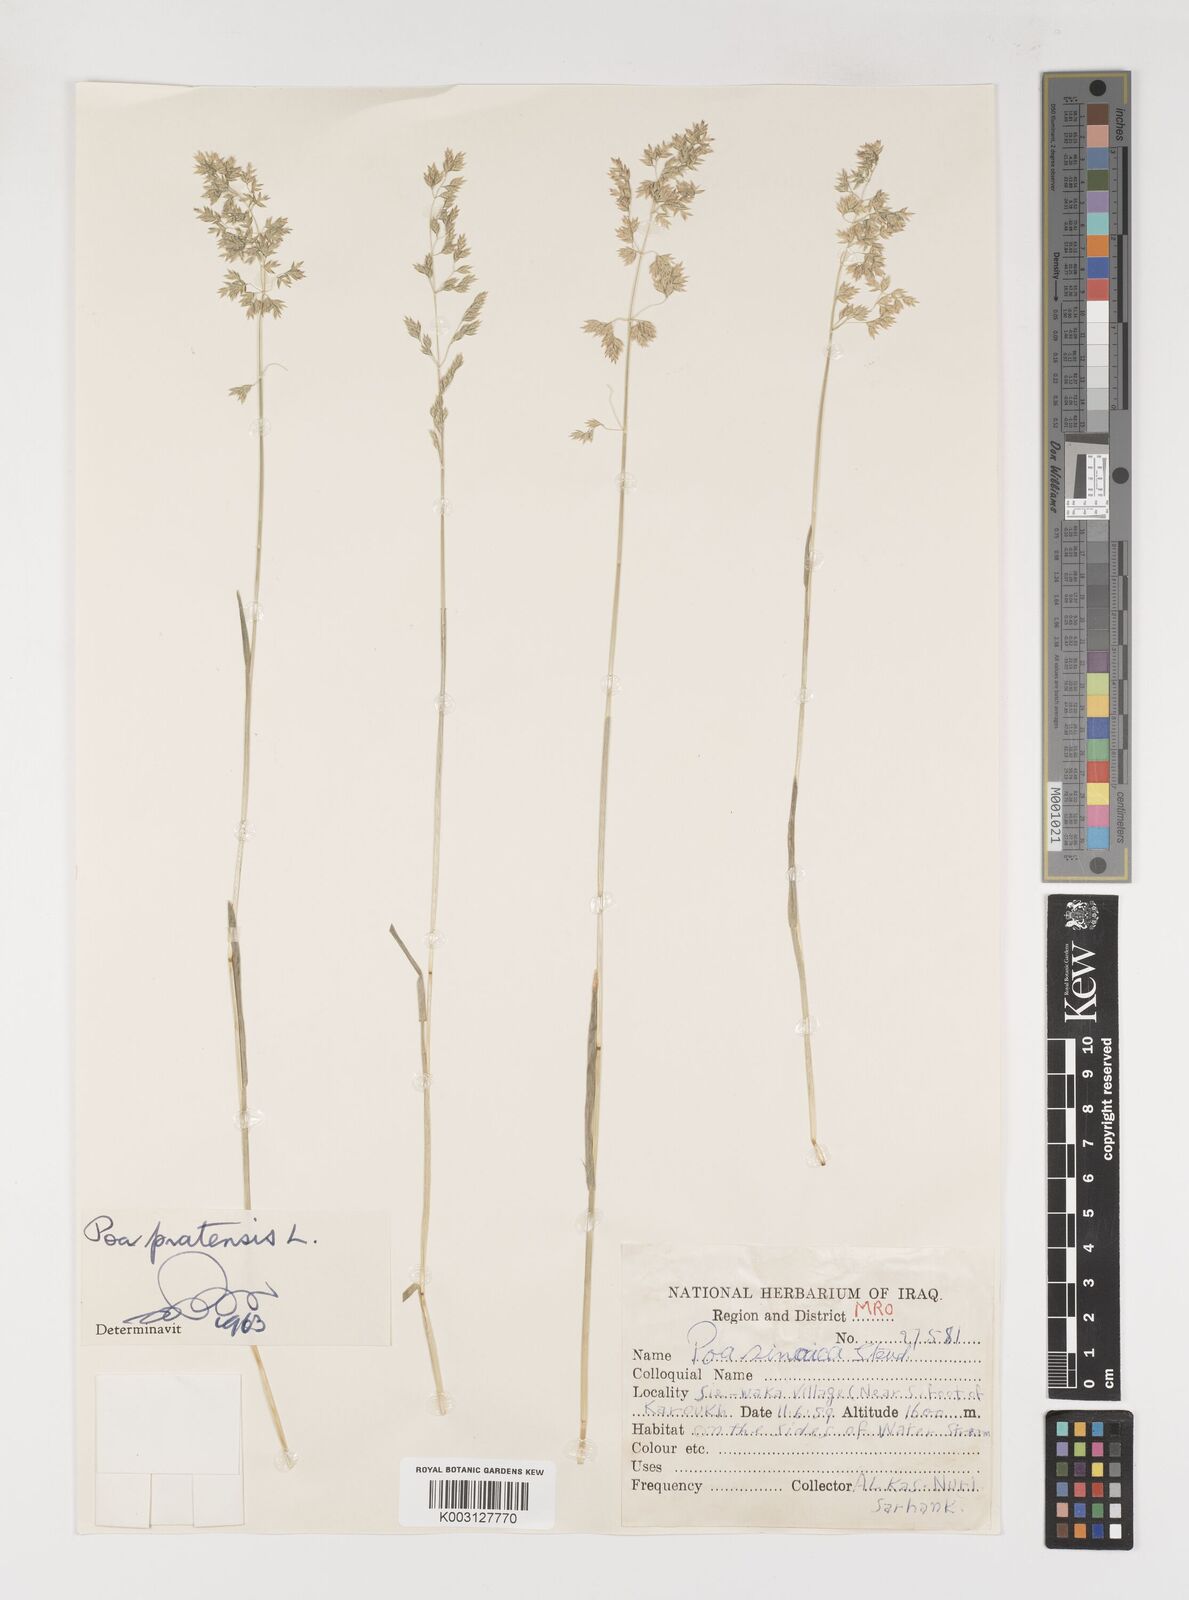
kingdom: Plantae
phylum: Tracheophyta
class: Liliopsida
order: Poales
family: Poaceae
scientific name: Poaceae
